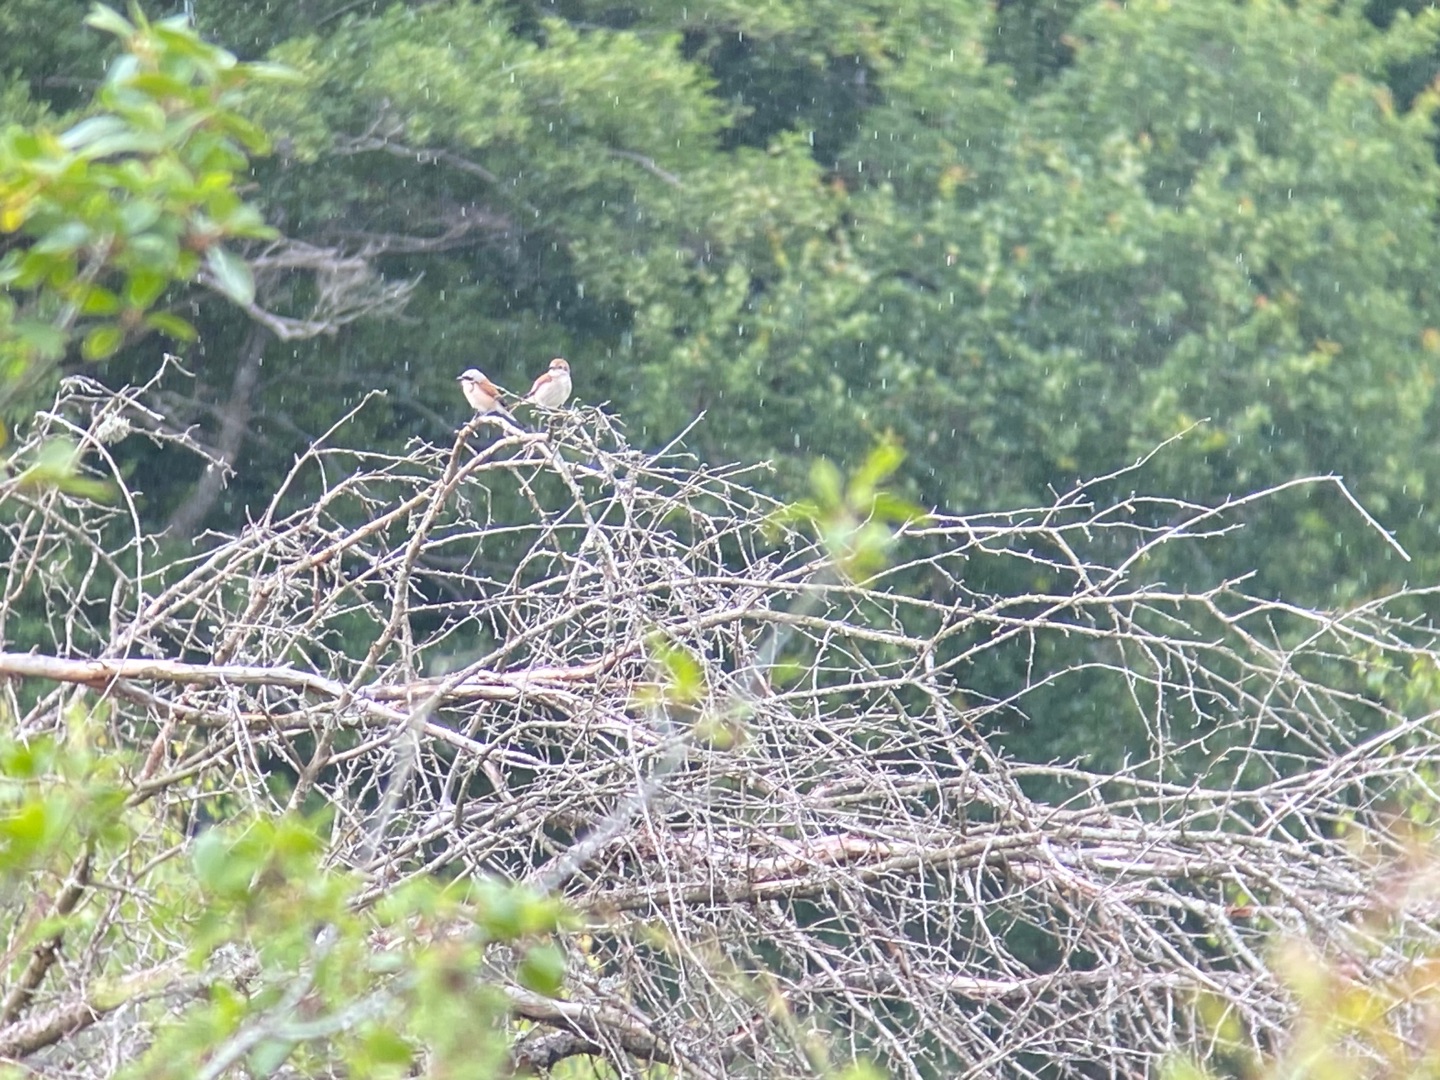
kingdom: Animalia
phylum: Chordata
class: Aves
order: Passeriformes
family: Laniidae
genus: Lanius
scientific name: Lanius collurio
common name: Rødrygget tornskade
